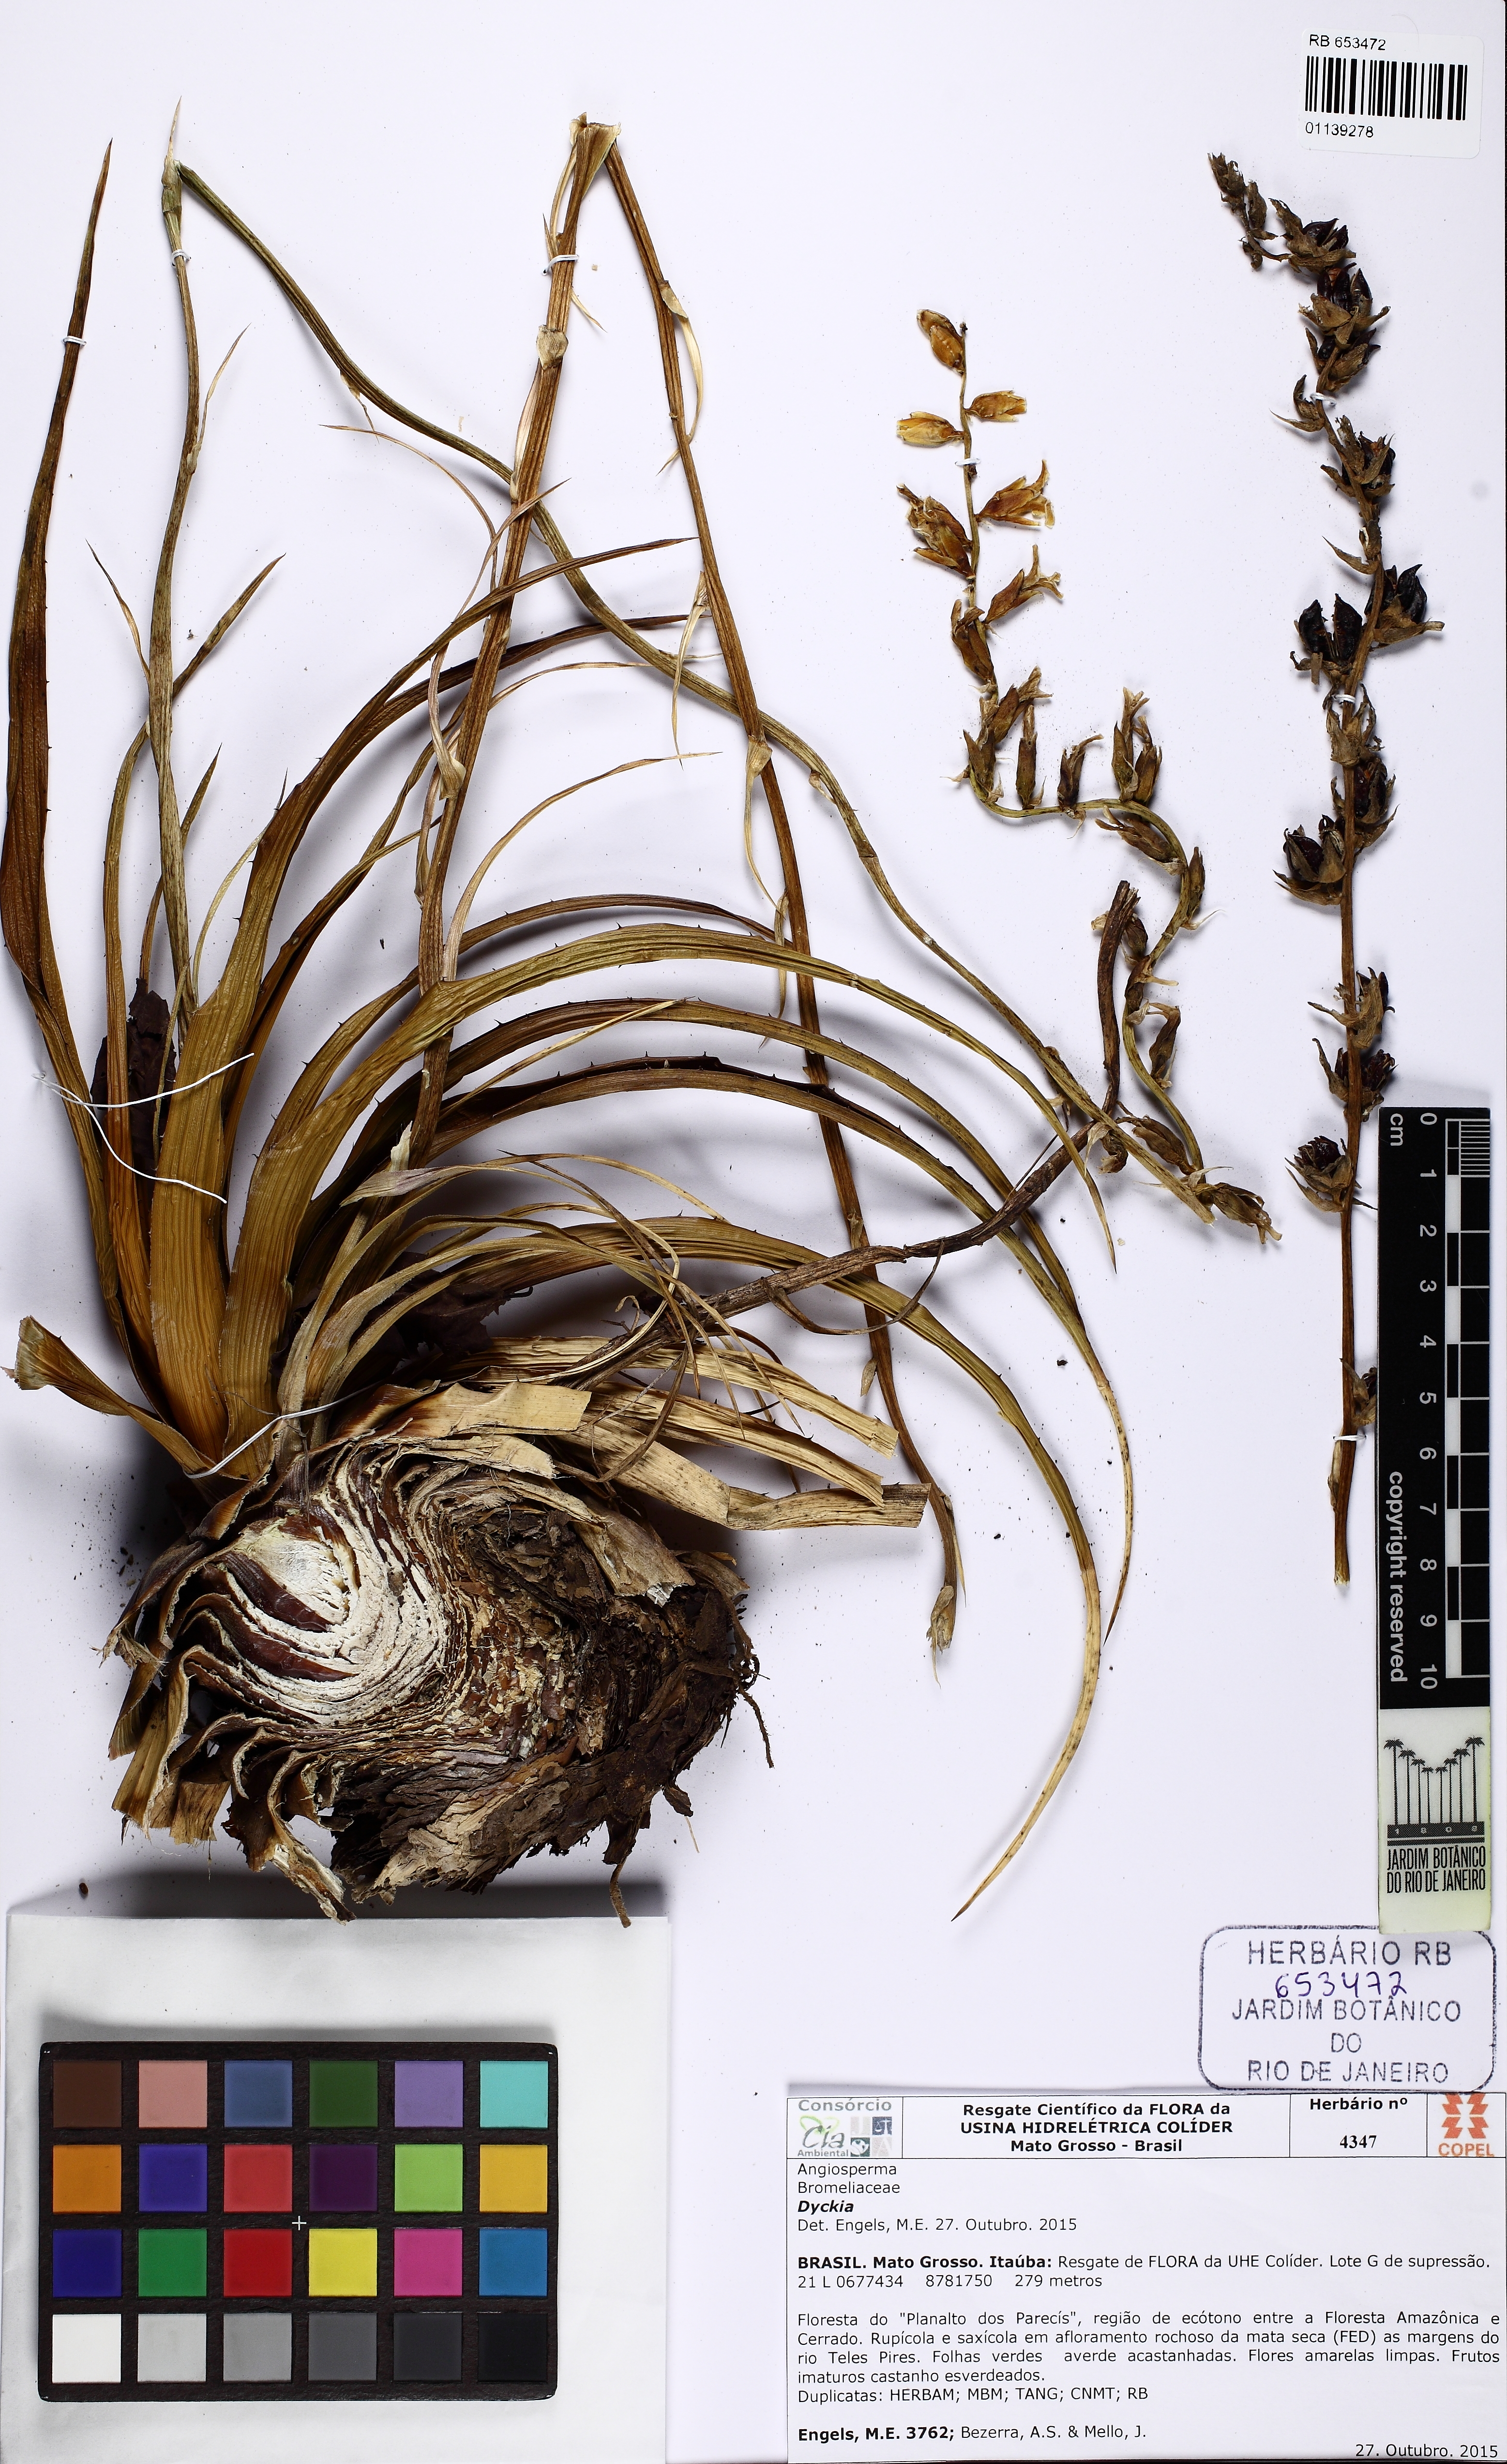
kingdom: Plantae
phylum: Tracheophyta
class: Liliopsida
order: Poales
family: Bromeliaceae
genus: Dyckia
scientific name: Dyckia silvae
